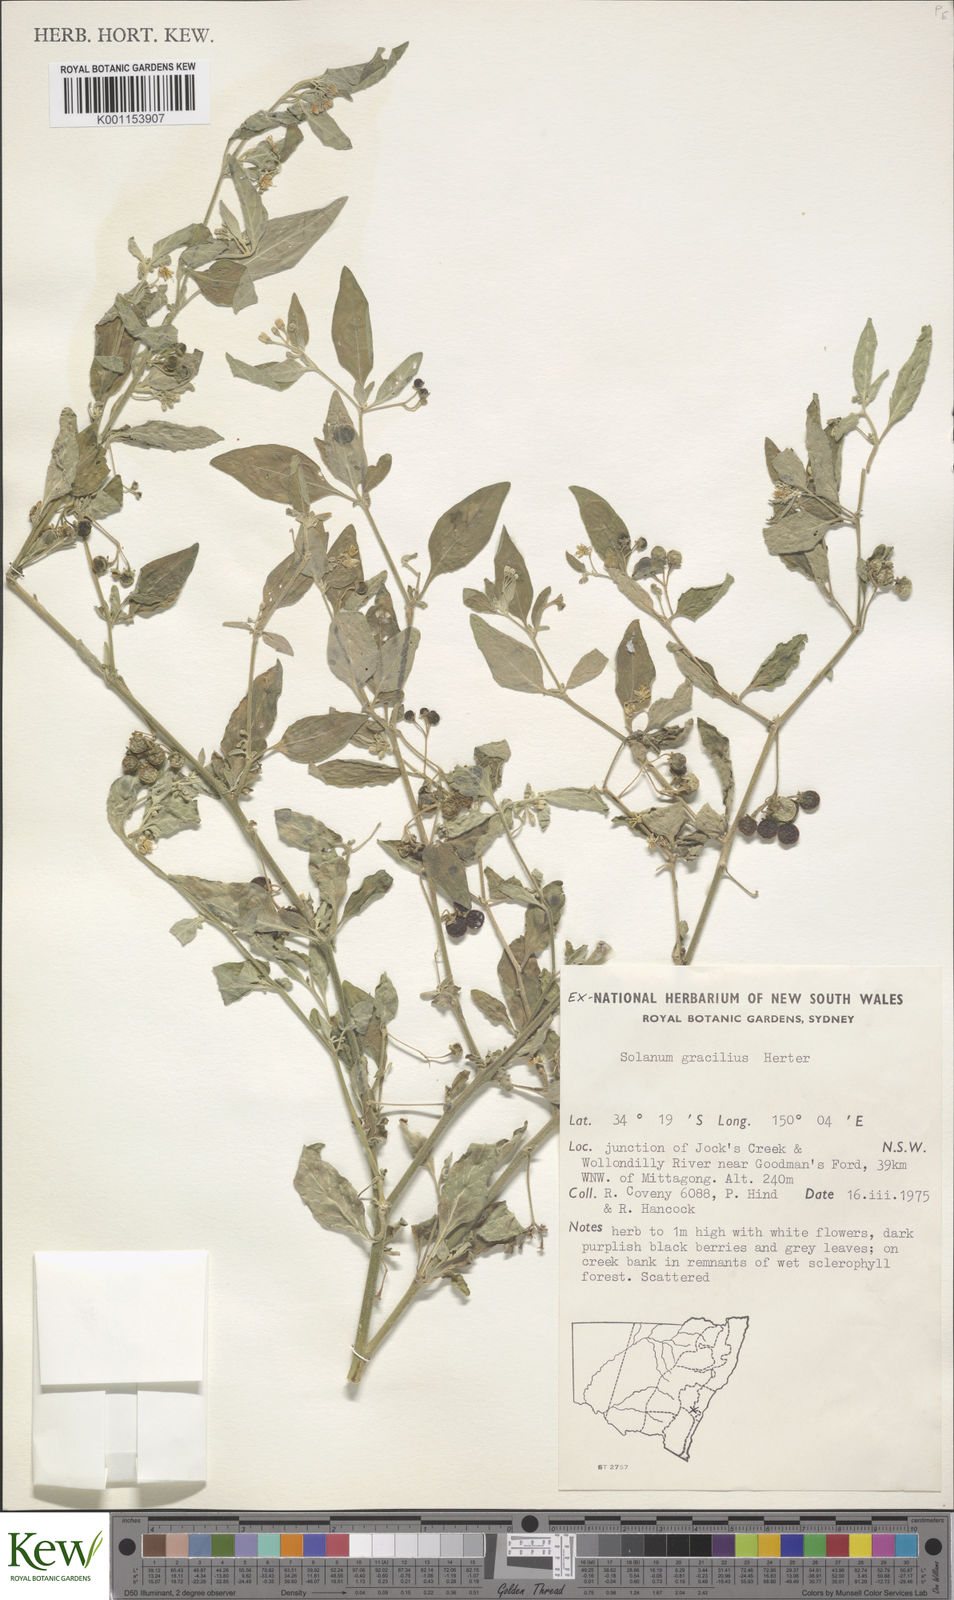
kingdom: Plantae
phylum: Tracheophyta
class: Magnoliopsida
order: Solanales
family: Solanaceae
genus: Solanum
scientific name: Solanum chenopodioides
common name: Tall nightshade
